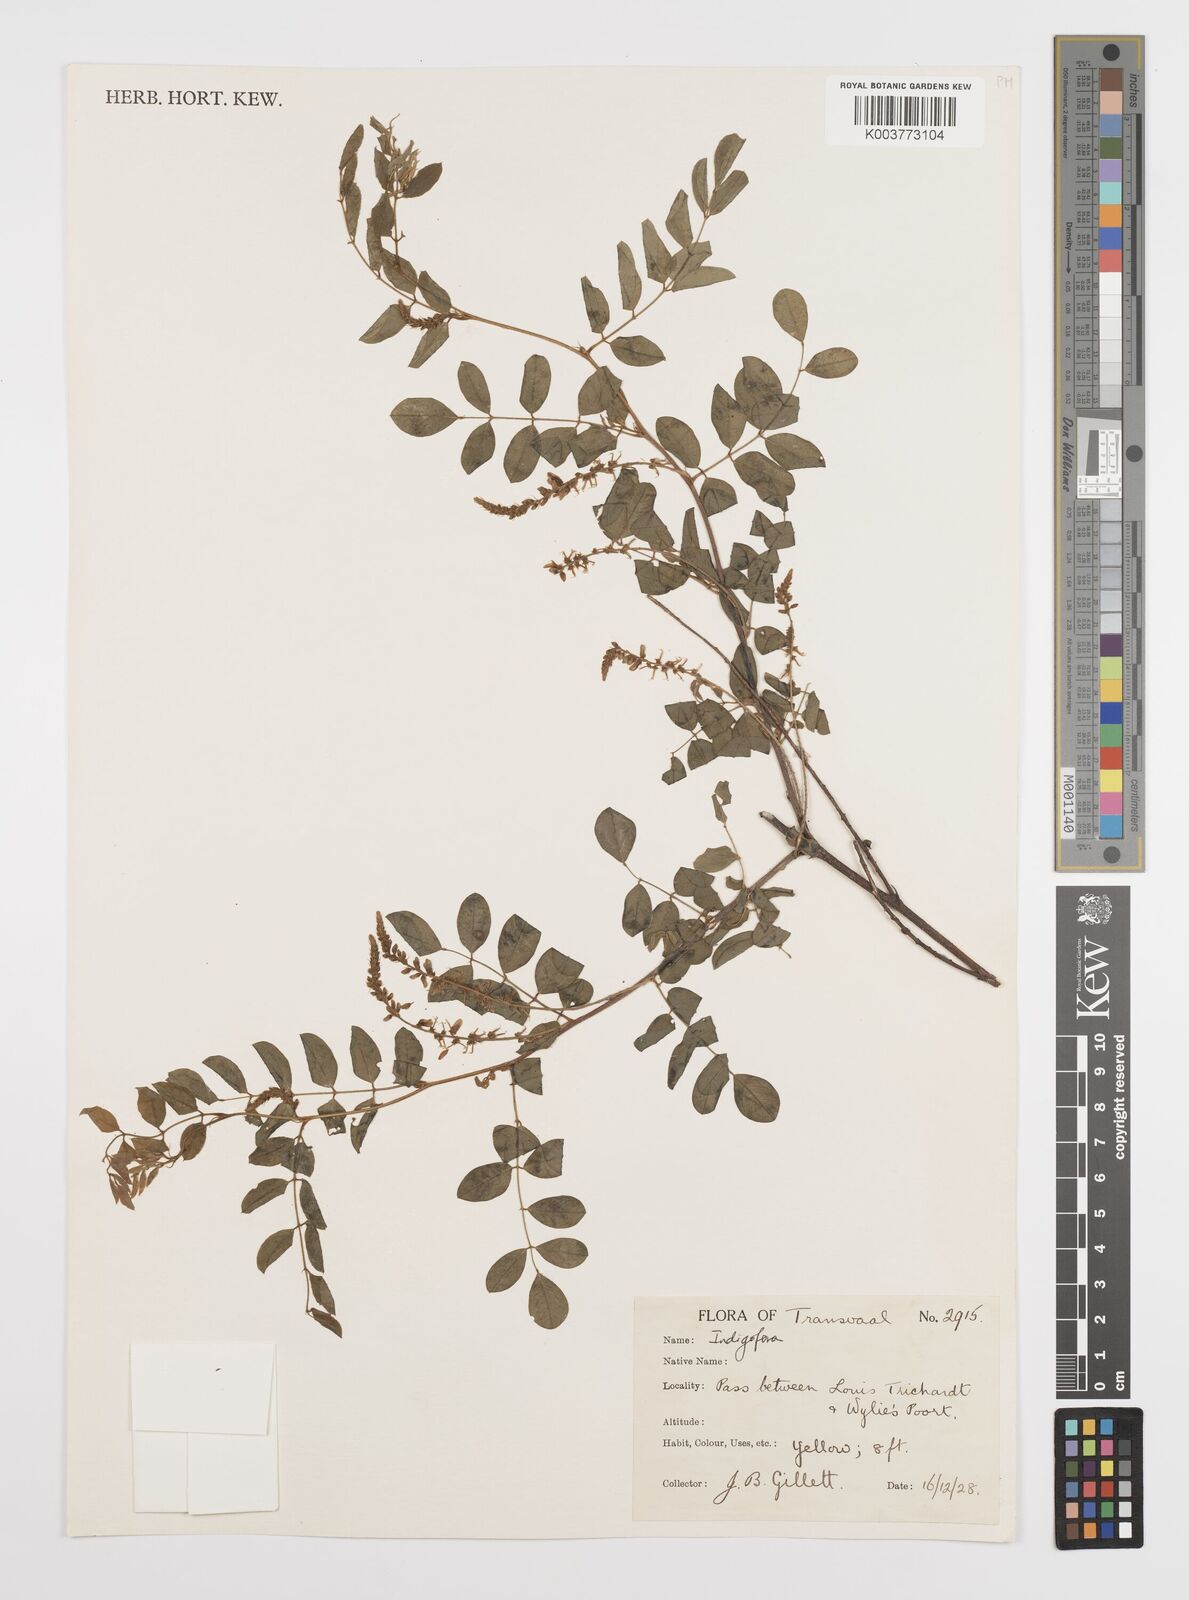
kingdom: Plantae
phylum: Tracheophyta
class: Magnoliopsida
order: Fabales
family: Fabaceae
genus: Indigofera
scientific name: Indigofera subcorymbosa
